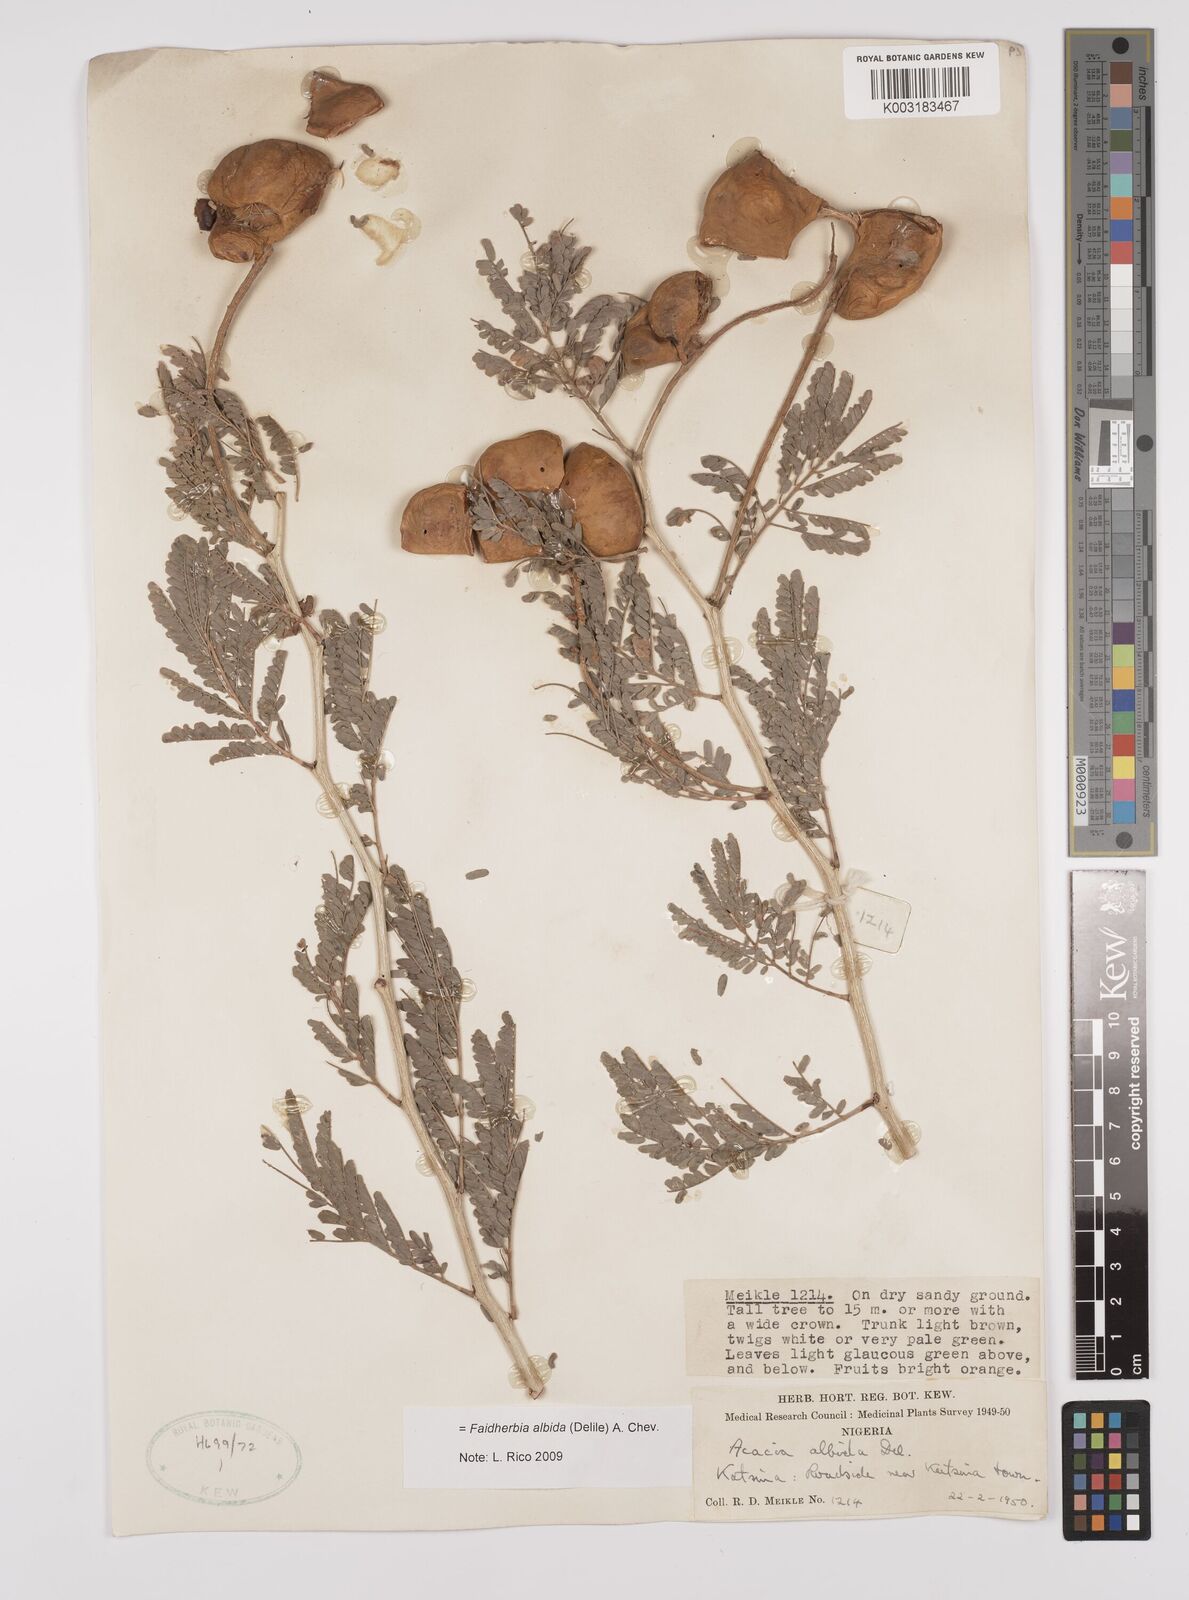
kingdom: Plantae
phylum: Tracheophyta
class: Magnoliopsida
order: Fabales
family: Fabaceae
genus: Faidherbia
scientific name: Faidherbia albida
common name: Anatree
